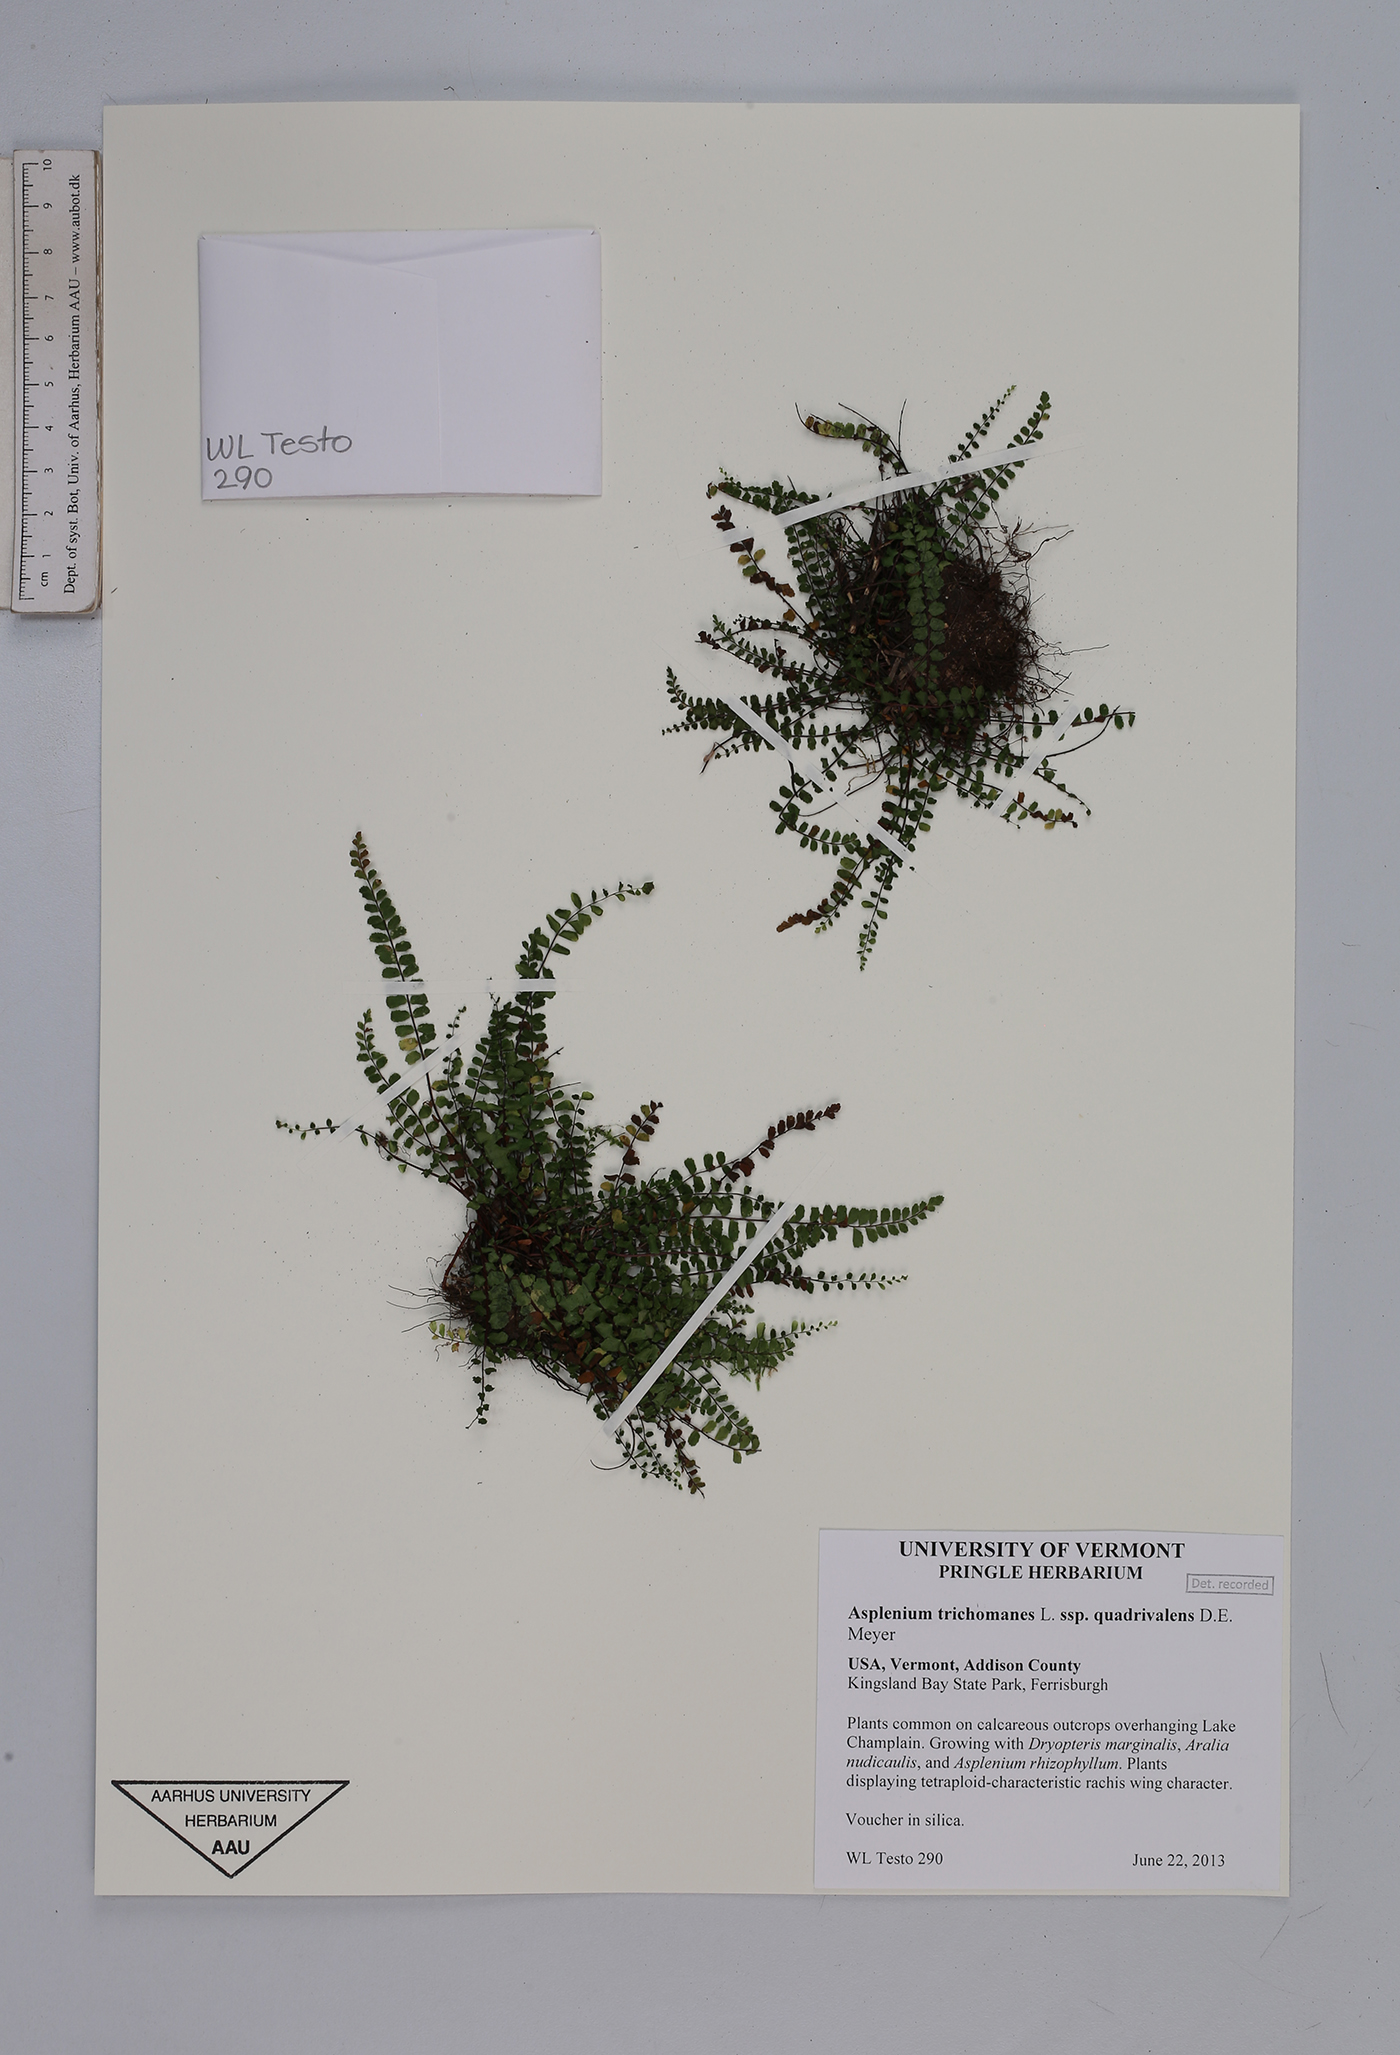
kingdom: Plantae
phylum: Tracheophyta
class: Polypodiopsida
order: Polypodiales
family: Aspleniaceae
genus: Asplenium
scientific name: Asplenium quadrivalens
